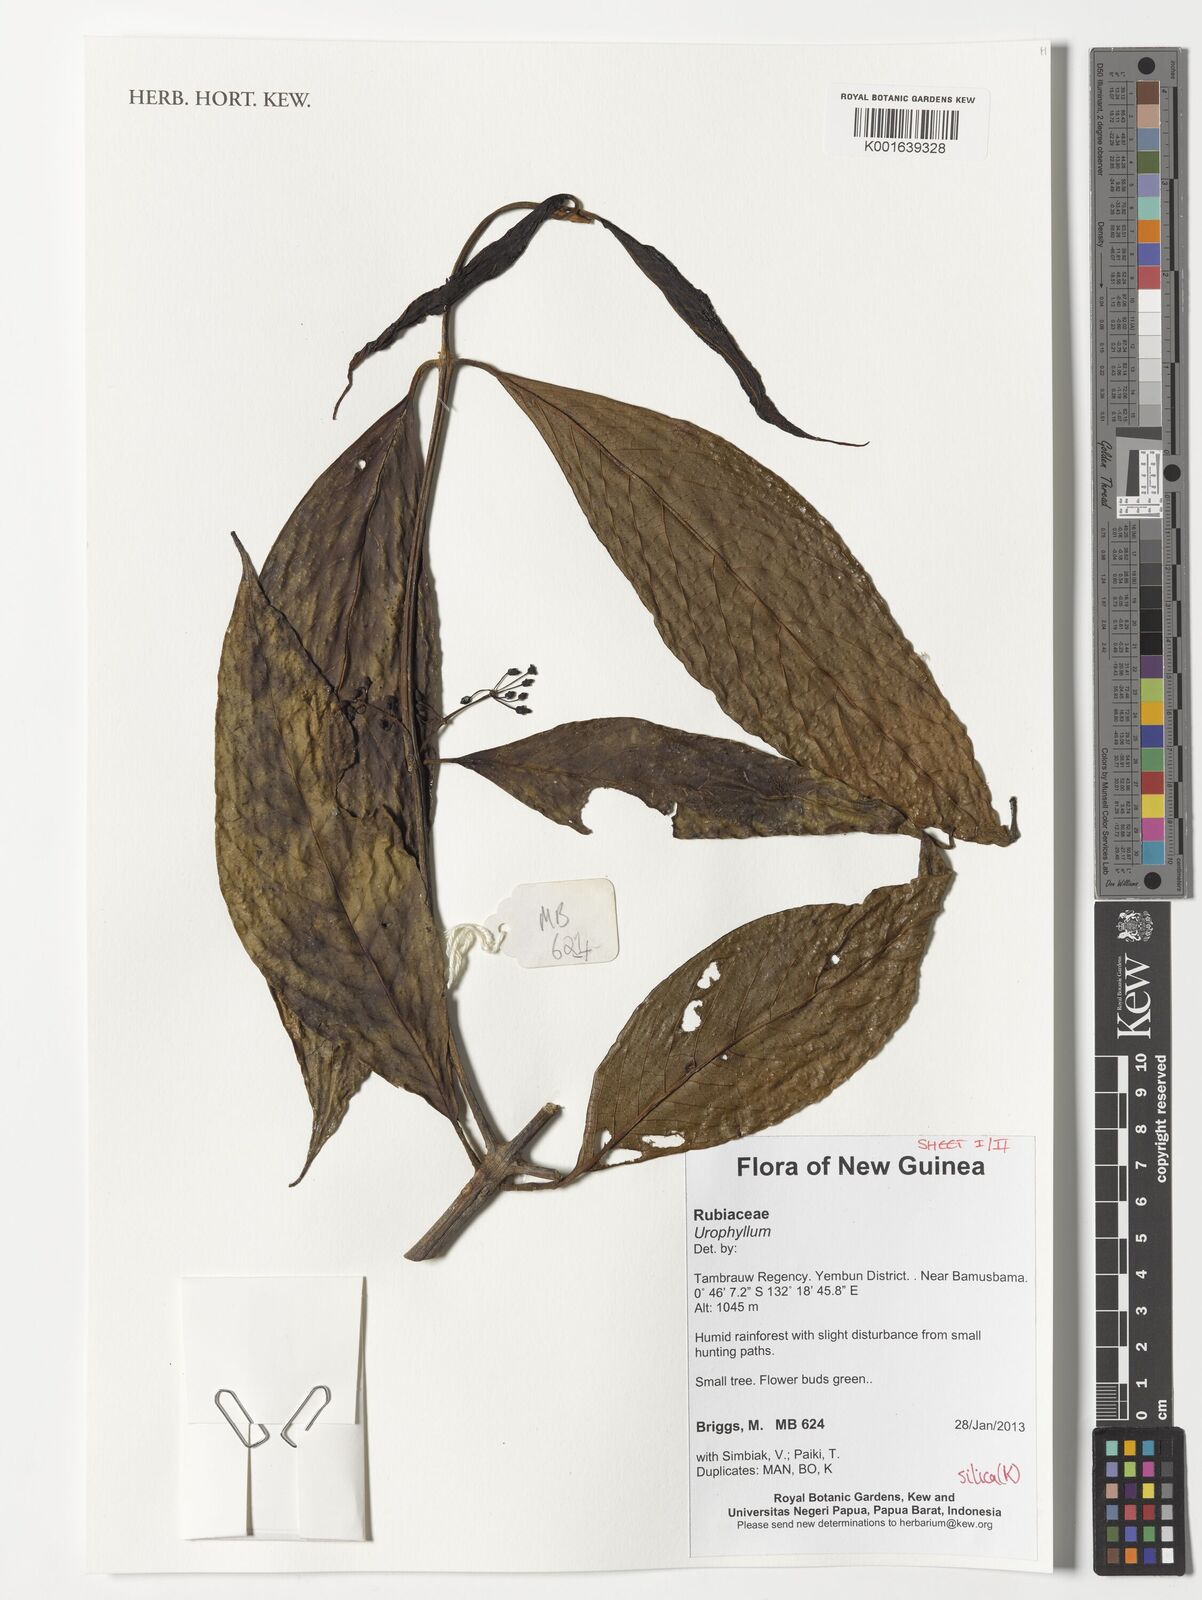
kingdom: Plantae
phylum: Tracheophyta
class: Magnoliopsida
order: Gentianales
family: Rubiaceae
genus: Urophyllum
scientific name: Urophyllum
